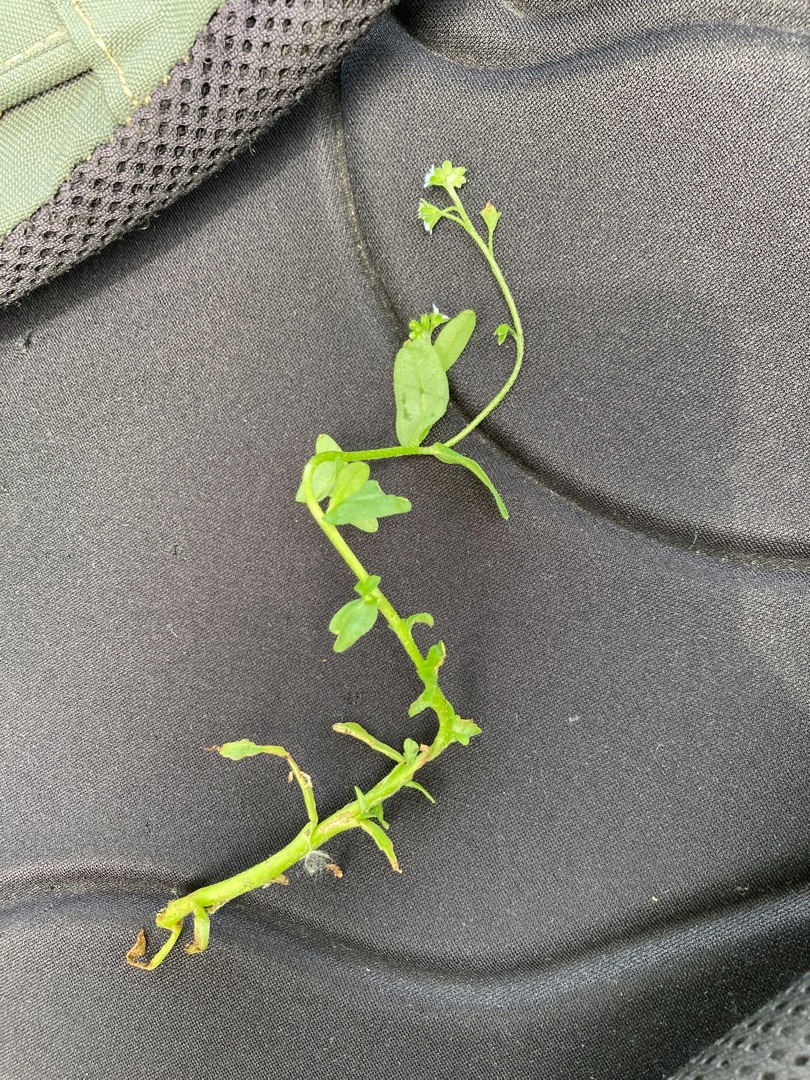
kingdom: Plantae
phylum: Tracheophyta
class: Magnoliopsida
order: Boraginales
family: Boraginaceae
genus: Myosotis
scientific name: Myosotis laxa
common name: Sump-forglemmigej
